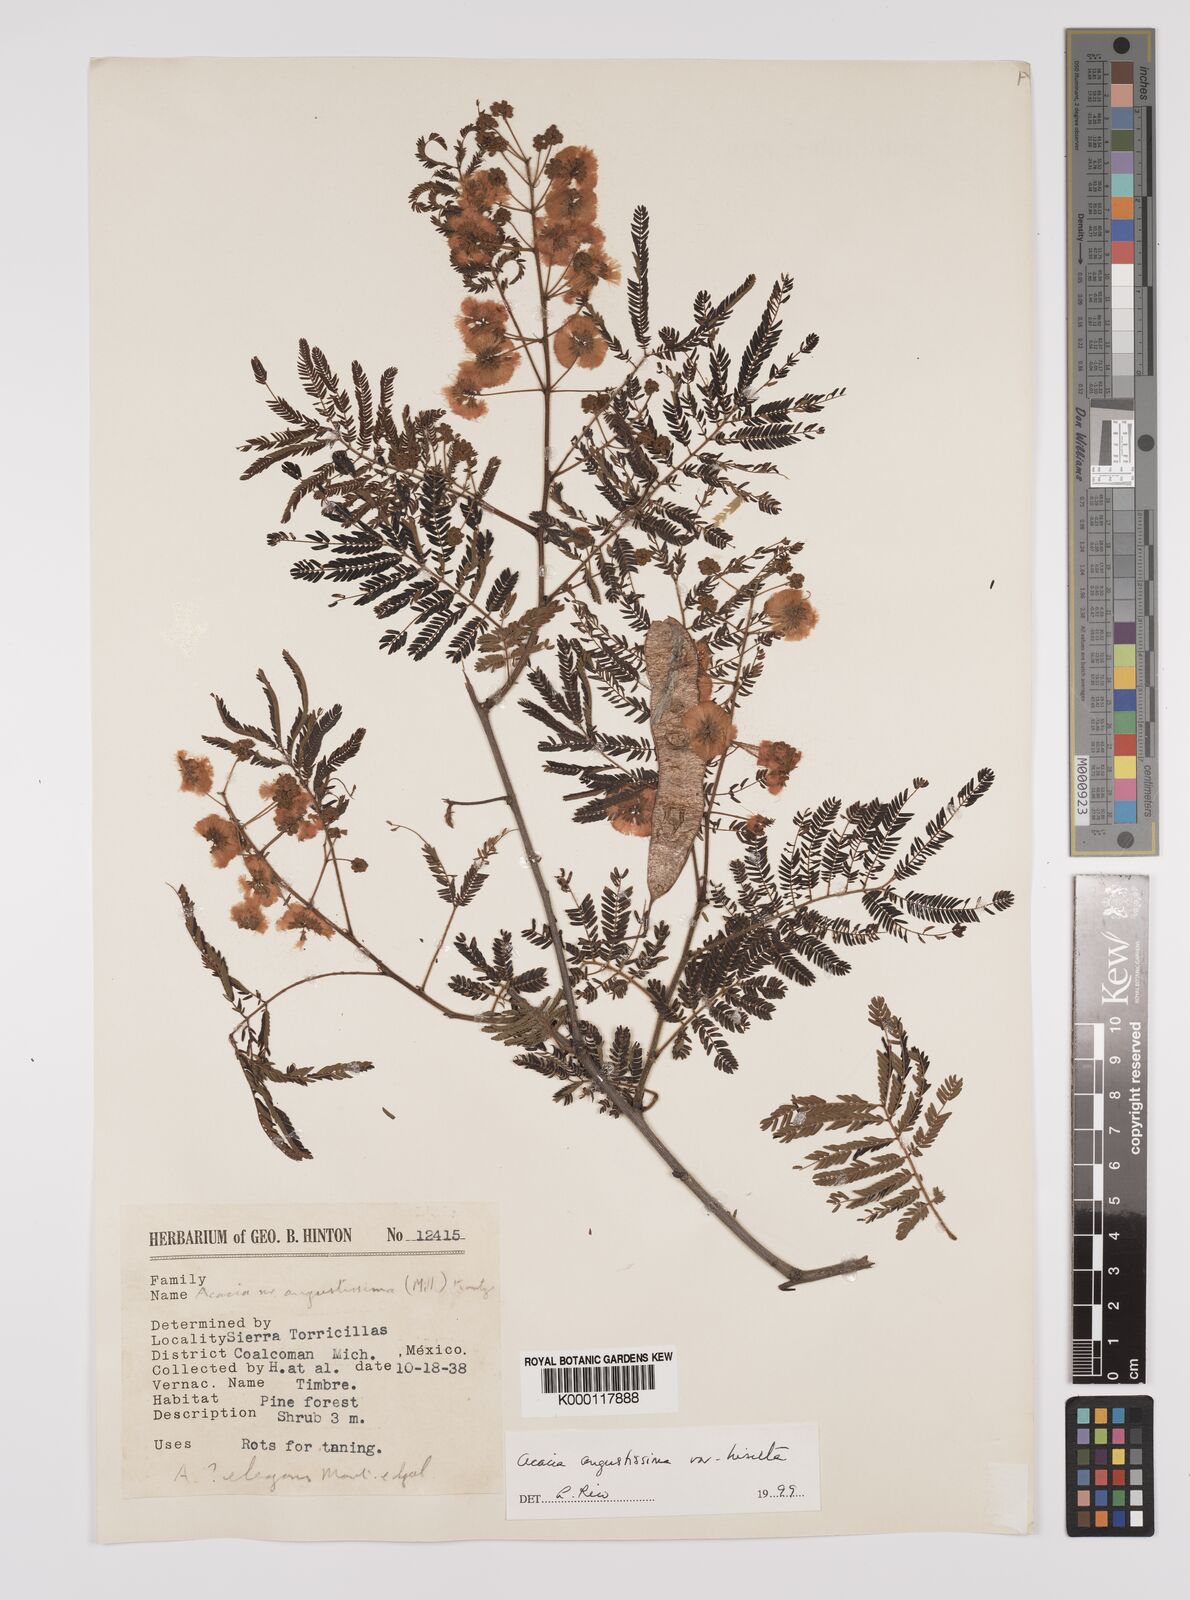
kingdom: Plantae
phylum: Tracheophyta
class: Magnoliopsida
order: Fabales
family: Fabaceae
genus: Acaciella
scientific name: Acaciella angustissima
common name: Prairie acacia
